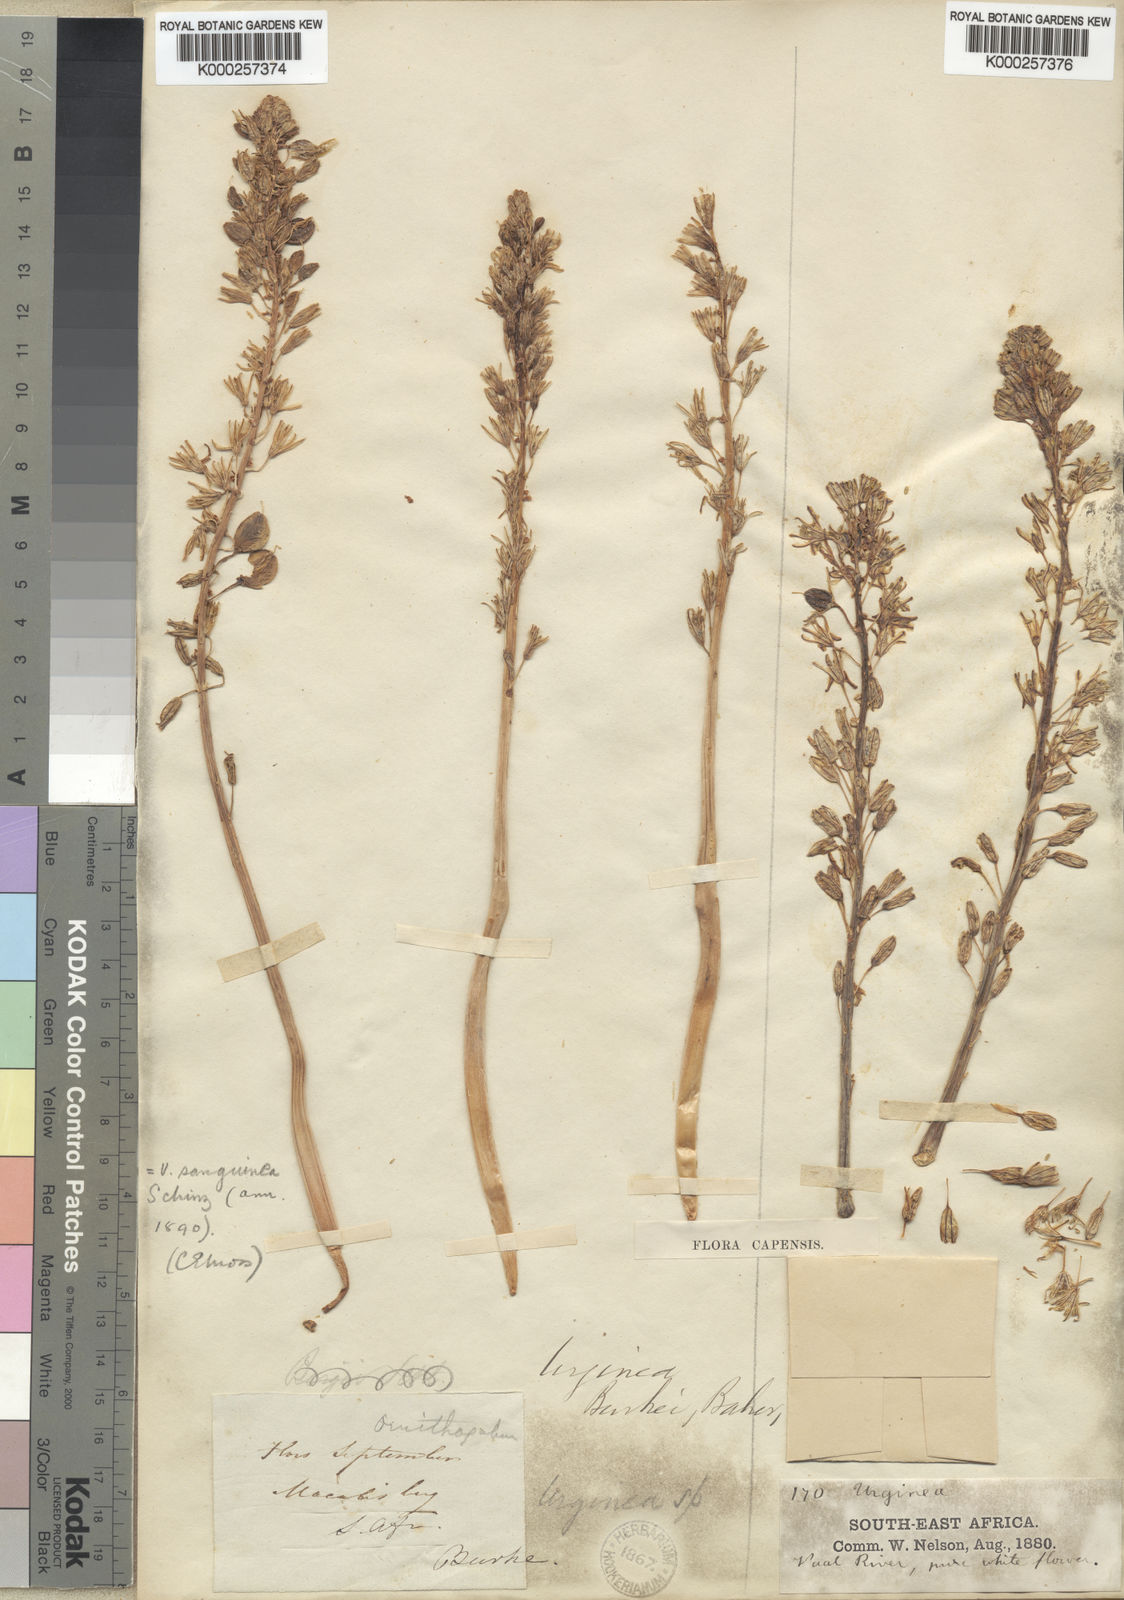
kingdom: Plantae
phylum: Tracheophyta
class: Liliopsida
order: Asparagales
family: Asparagaceae
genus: Drimia
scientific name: Drimia sanguinea
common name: Transvaal slangkop
